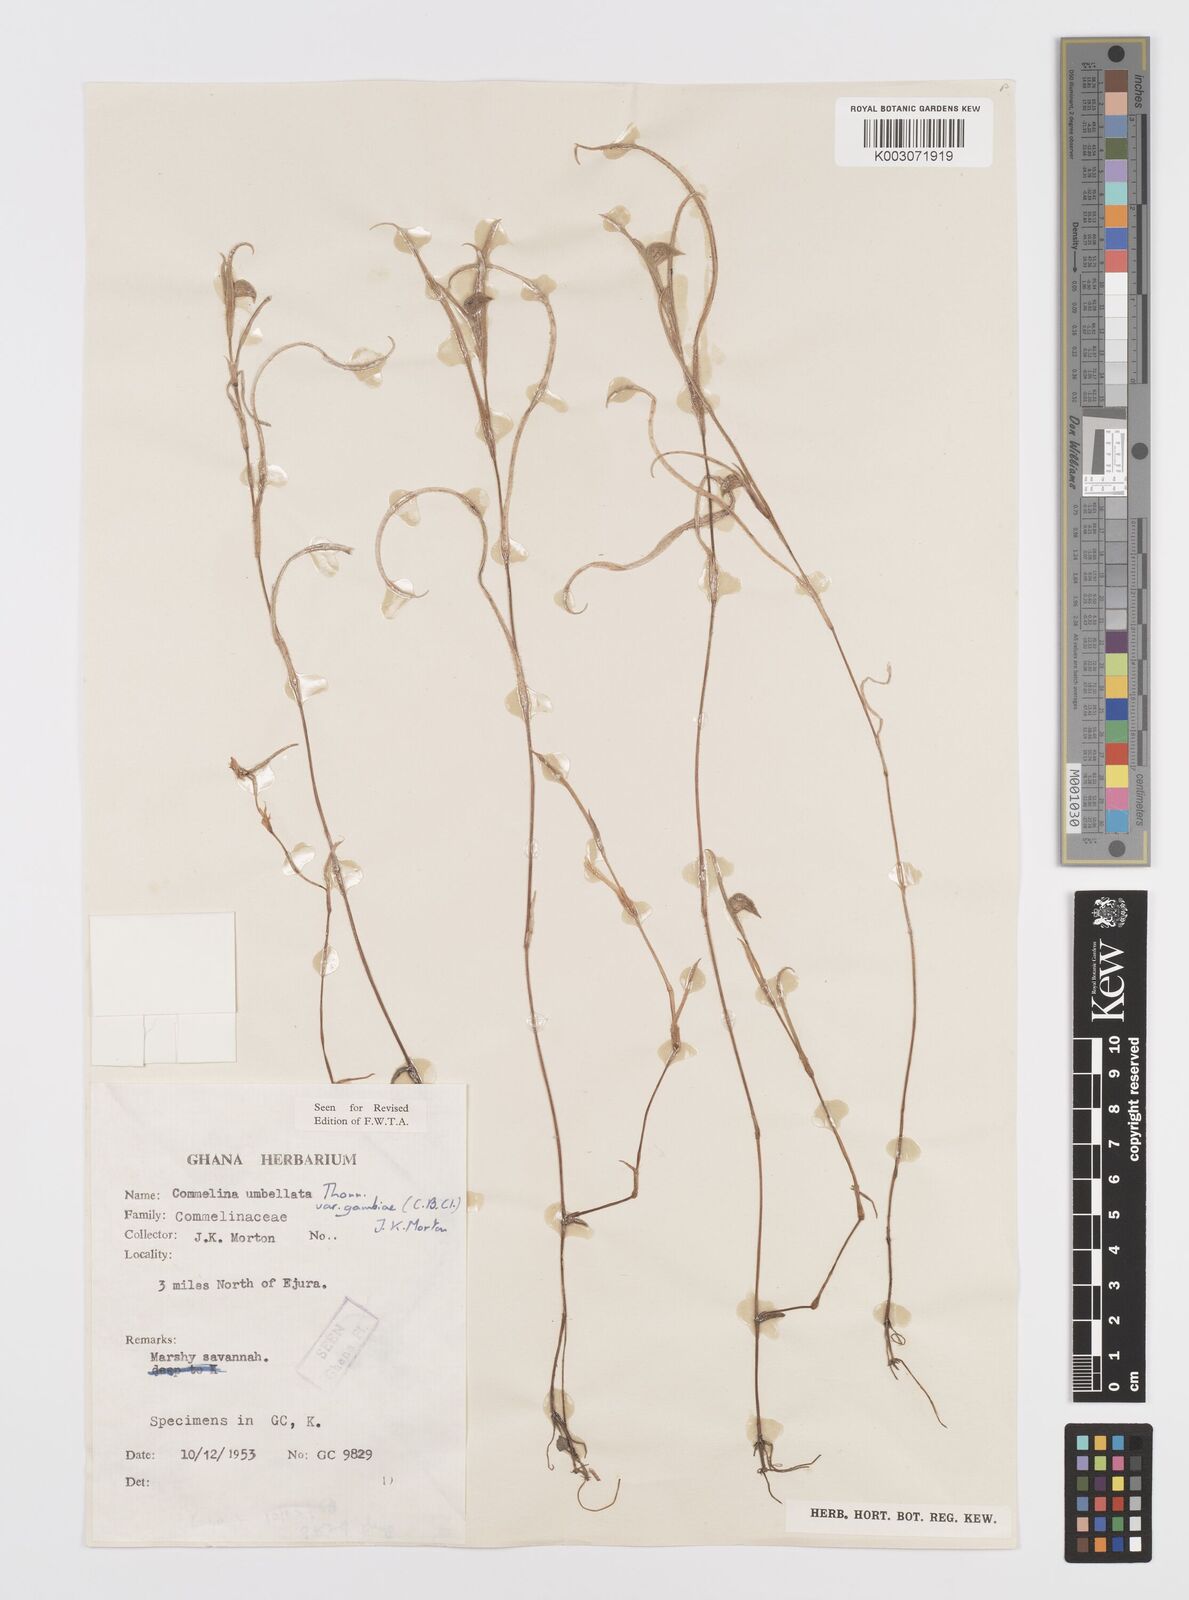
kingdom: Plantae
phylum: Tracheophyta
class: Liliopsida
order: Commelinales
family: Commelinaceae
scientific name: Commelinaceae
